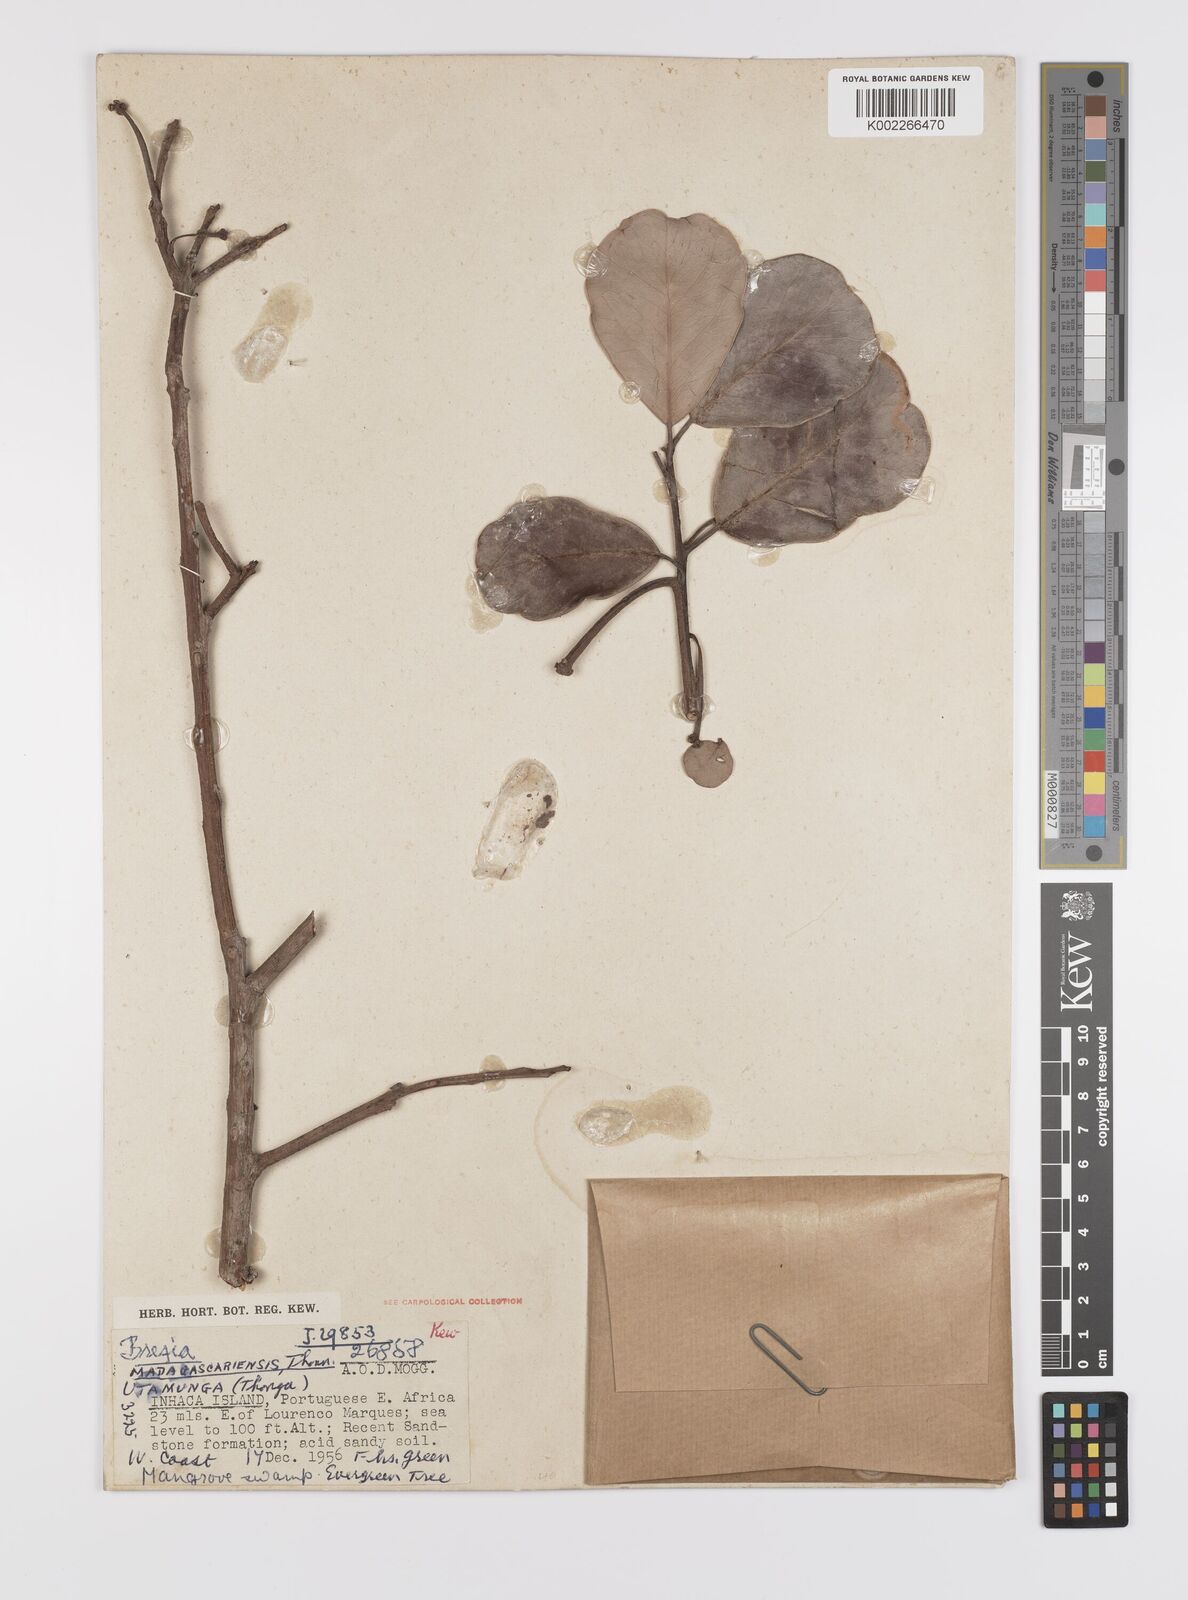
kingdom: Plantae
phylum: Tracheophyta
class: Magnoliopsida
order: Celastrales
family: Celastraceae
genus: Brexia
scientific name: Brexia madagascariensis
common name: Brexia
